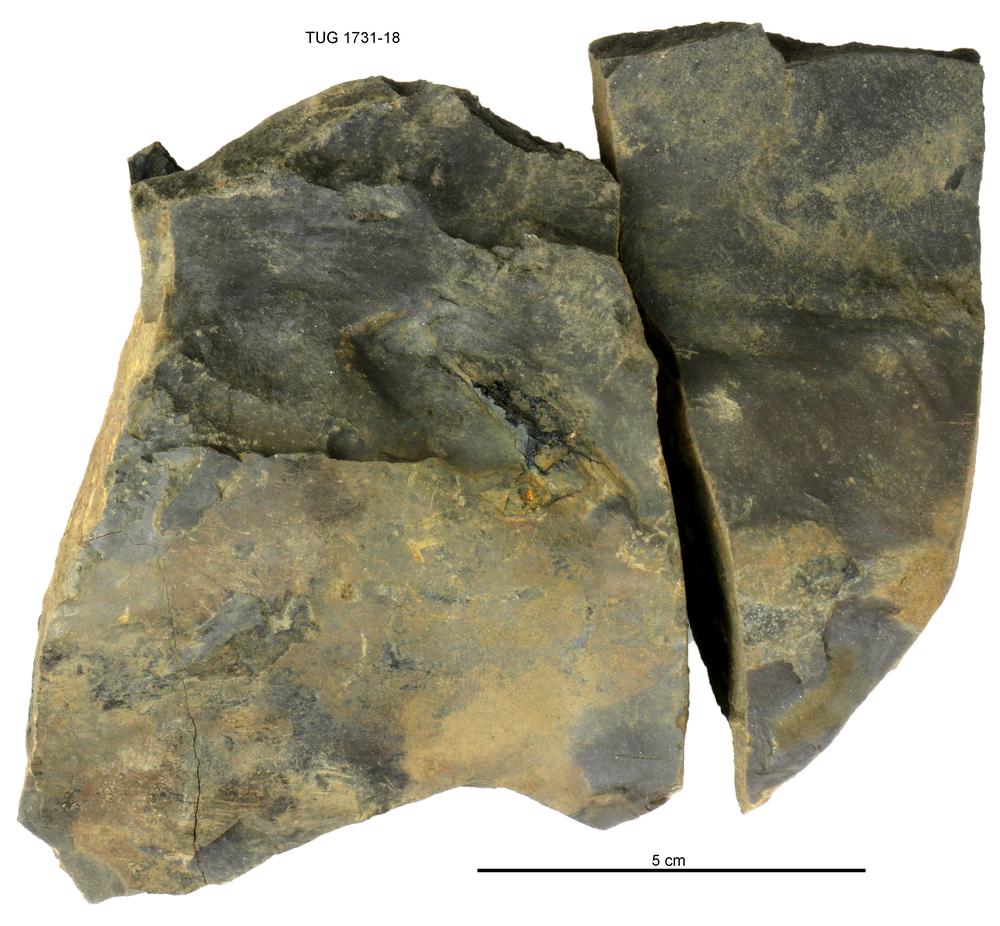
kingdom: Animalia
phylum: Chordata
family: Holoptychiidae
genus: Glyptolepis
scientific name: Glyptolepis
